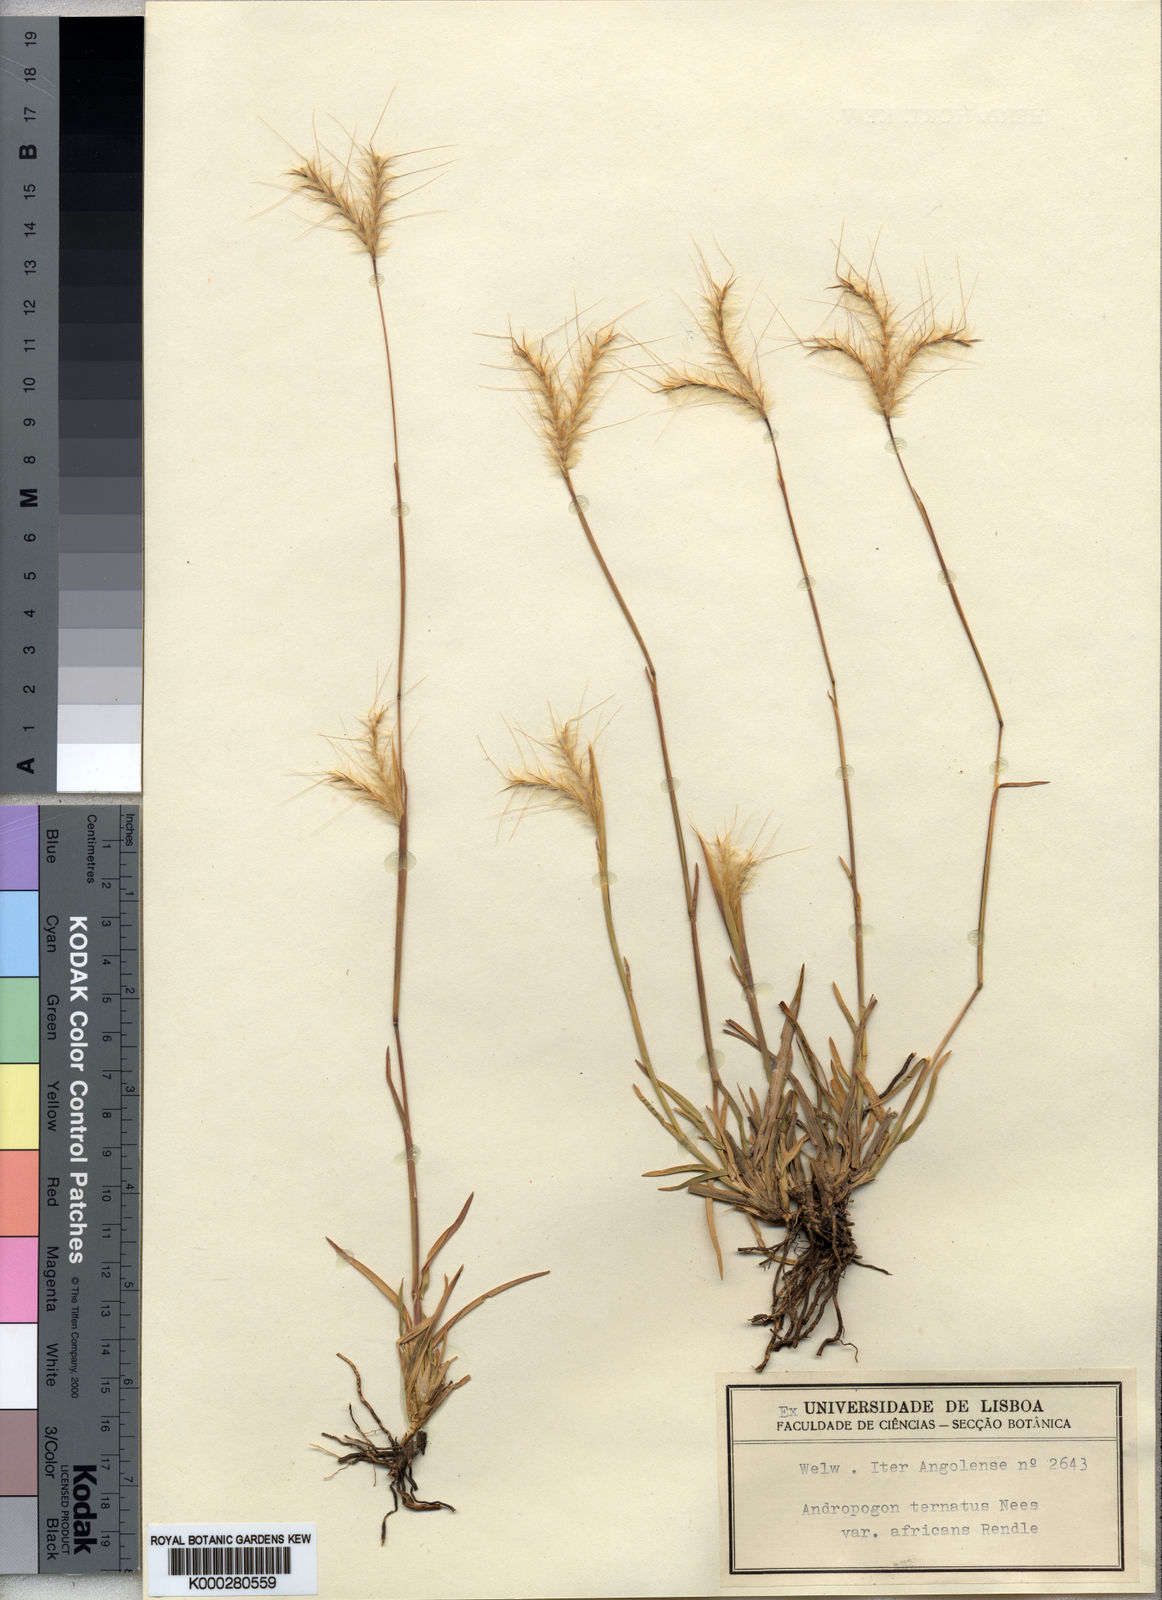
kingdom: Plantae
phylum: Tracheophyta
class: Liliopsida
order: Poales
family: Poaceae
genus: Andropogon
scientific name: Andropogon eucomus
